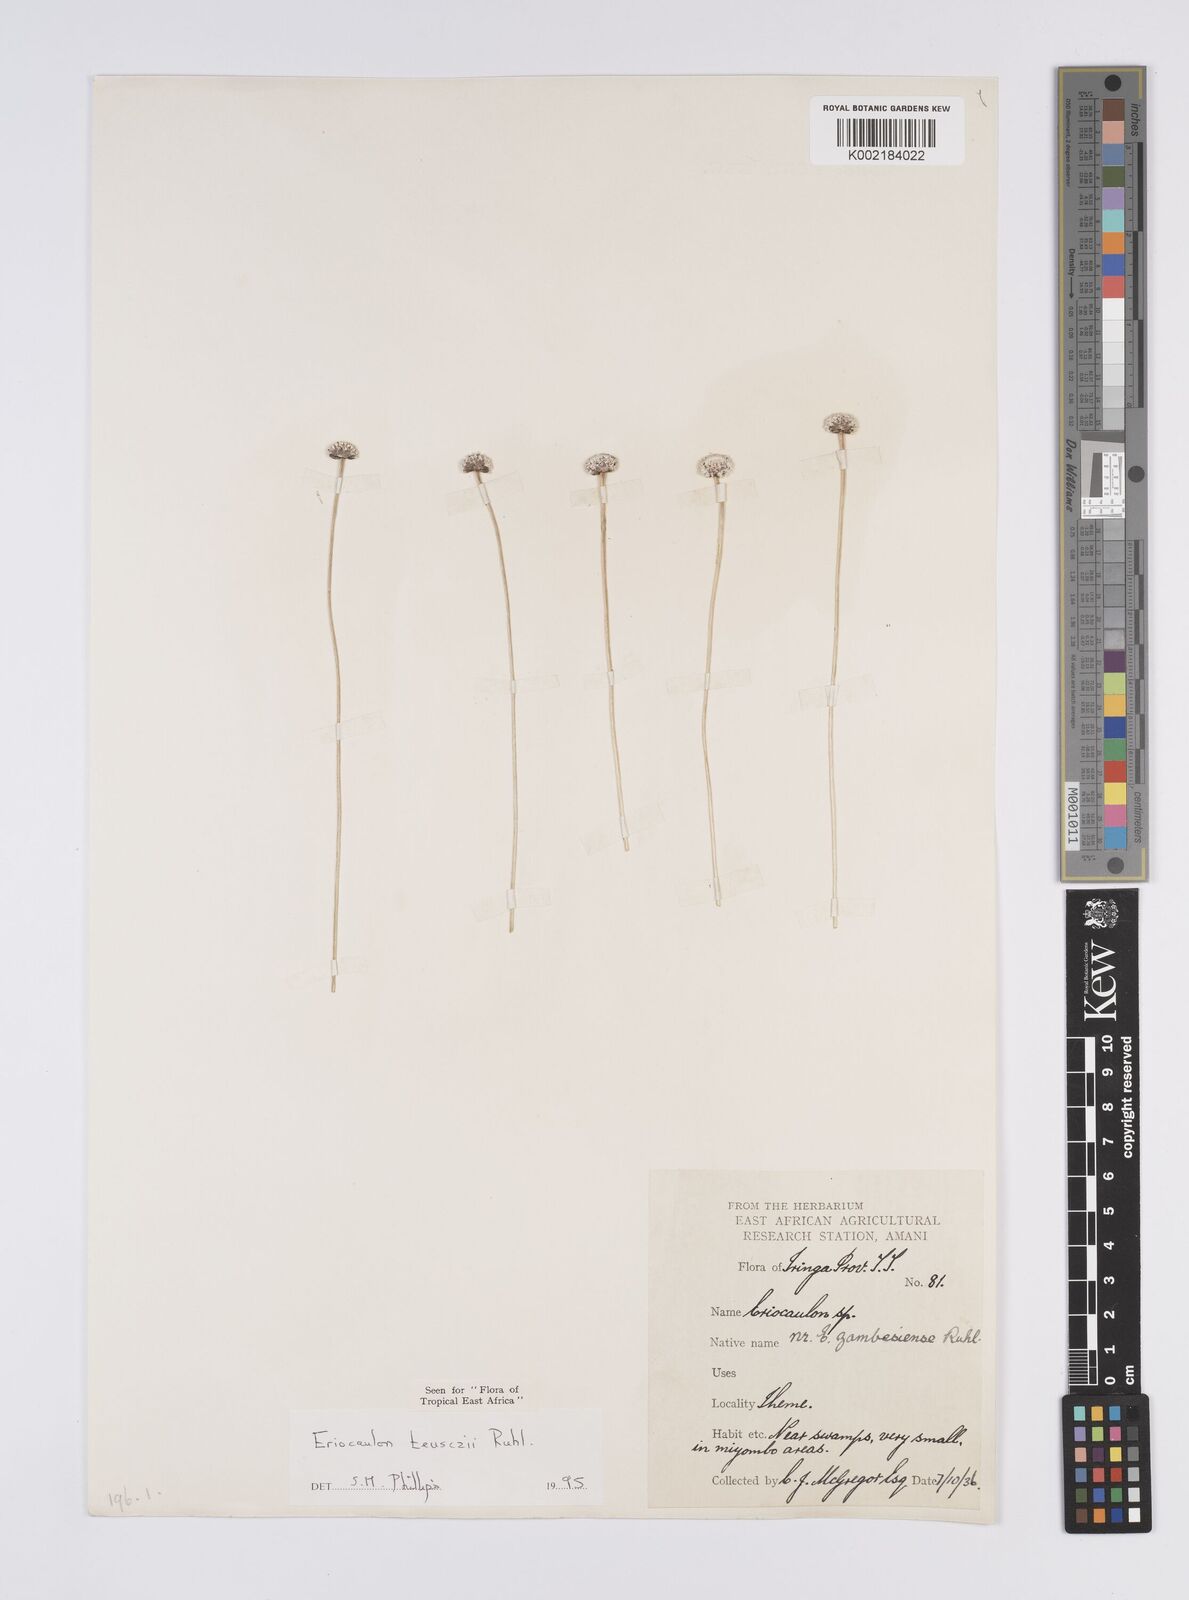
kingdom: Plantae
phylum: Tracheophyta
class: Liliopsida
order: Poales
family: Eriocaulaceae
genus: Eriocaulon
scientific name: Eriocaulon teusczii
